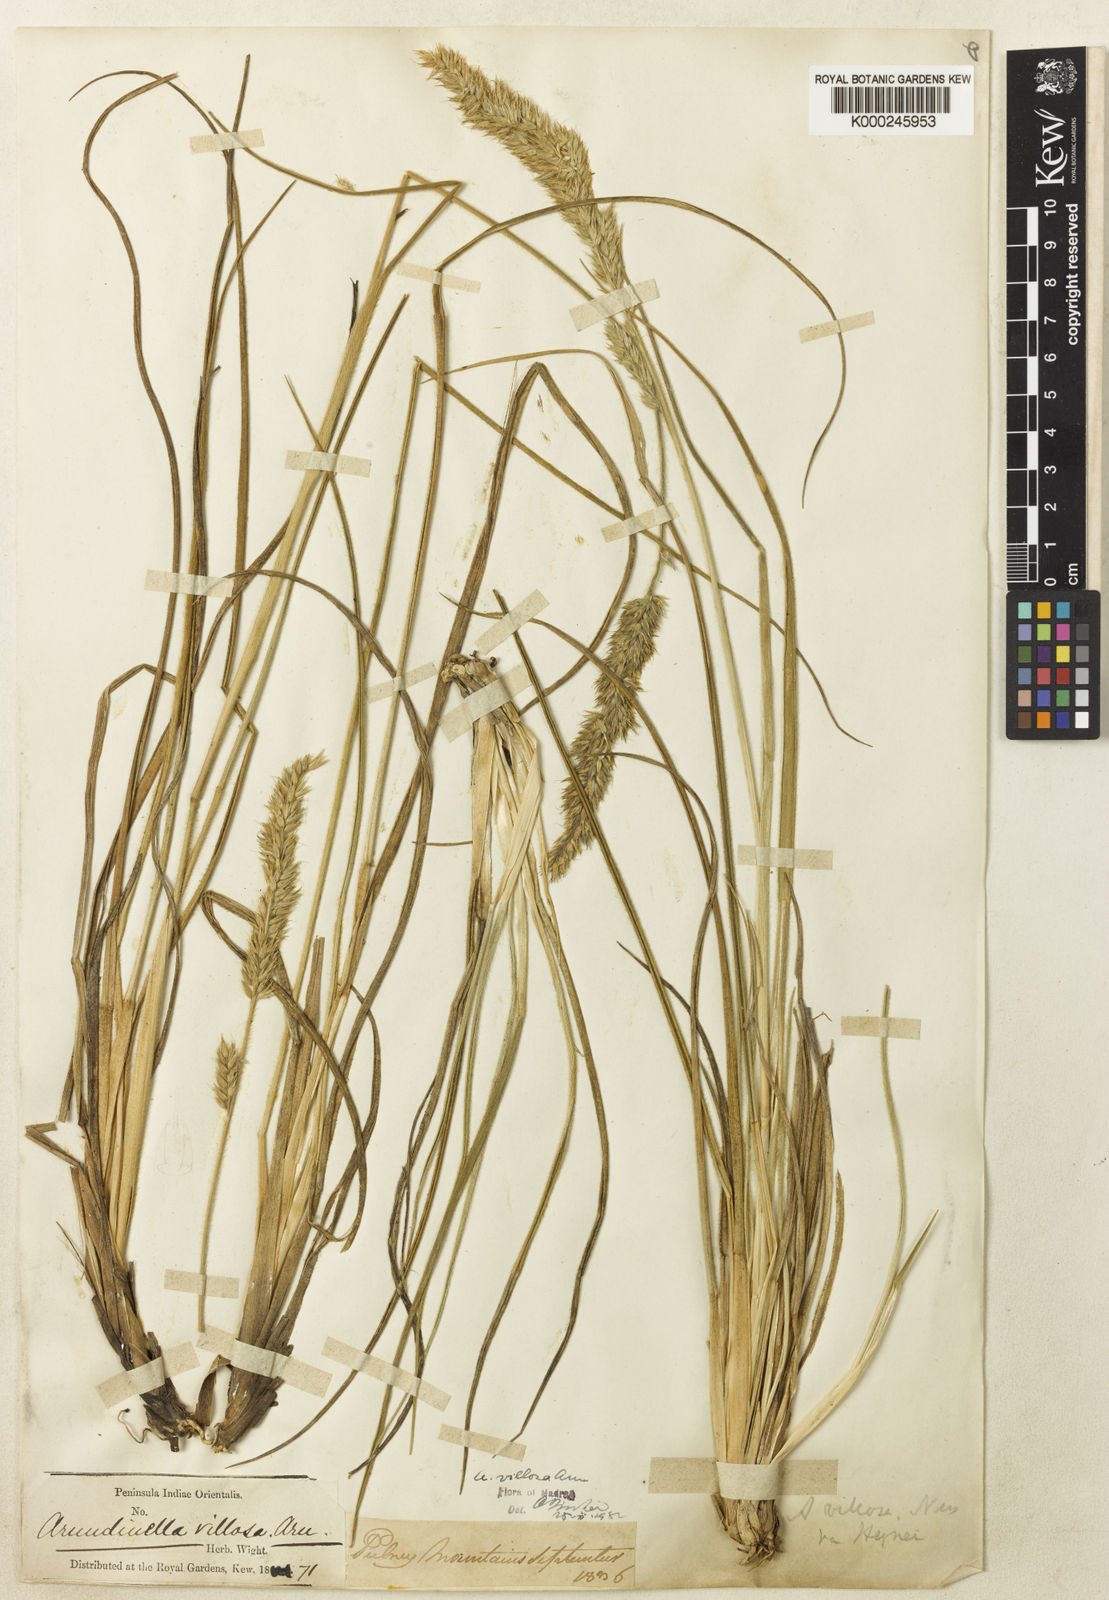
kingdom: Plantae
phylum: Tracheophyta
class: Liliopsida
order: Poales
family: Poaceae
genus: Arundinella
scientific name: Arundinella vaginata
